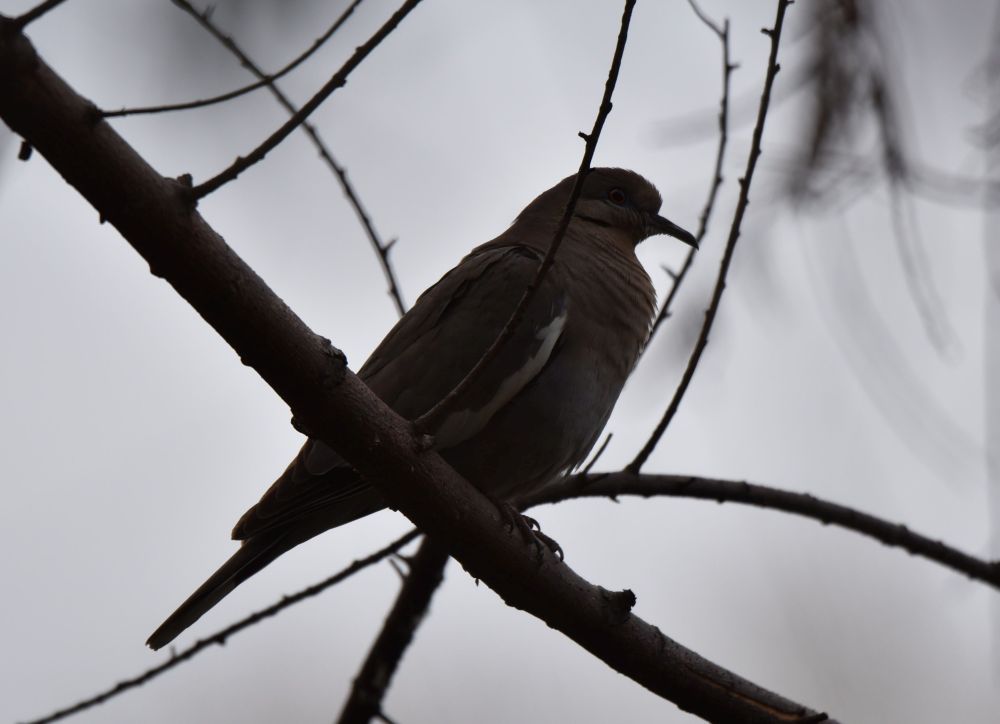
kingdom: Animalia
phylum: Chordata
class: Aves
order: Columbiformes
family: Columbidae
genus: Zenaida
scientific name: Zenaida asiatica
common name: White-winged dove
